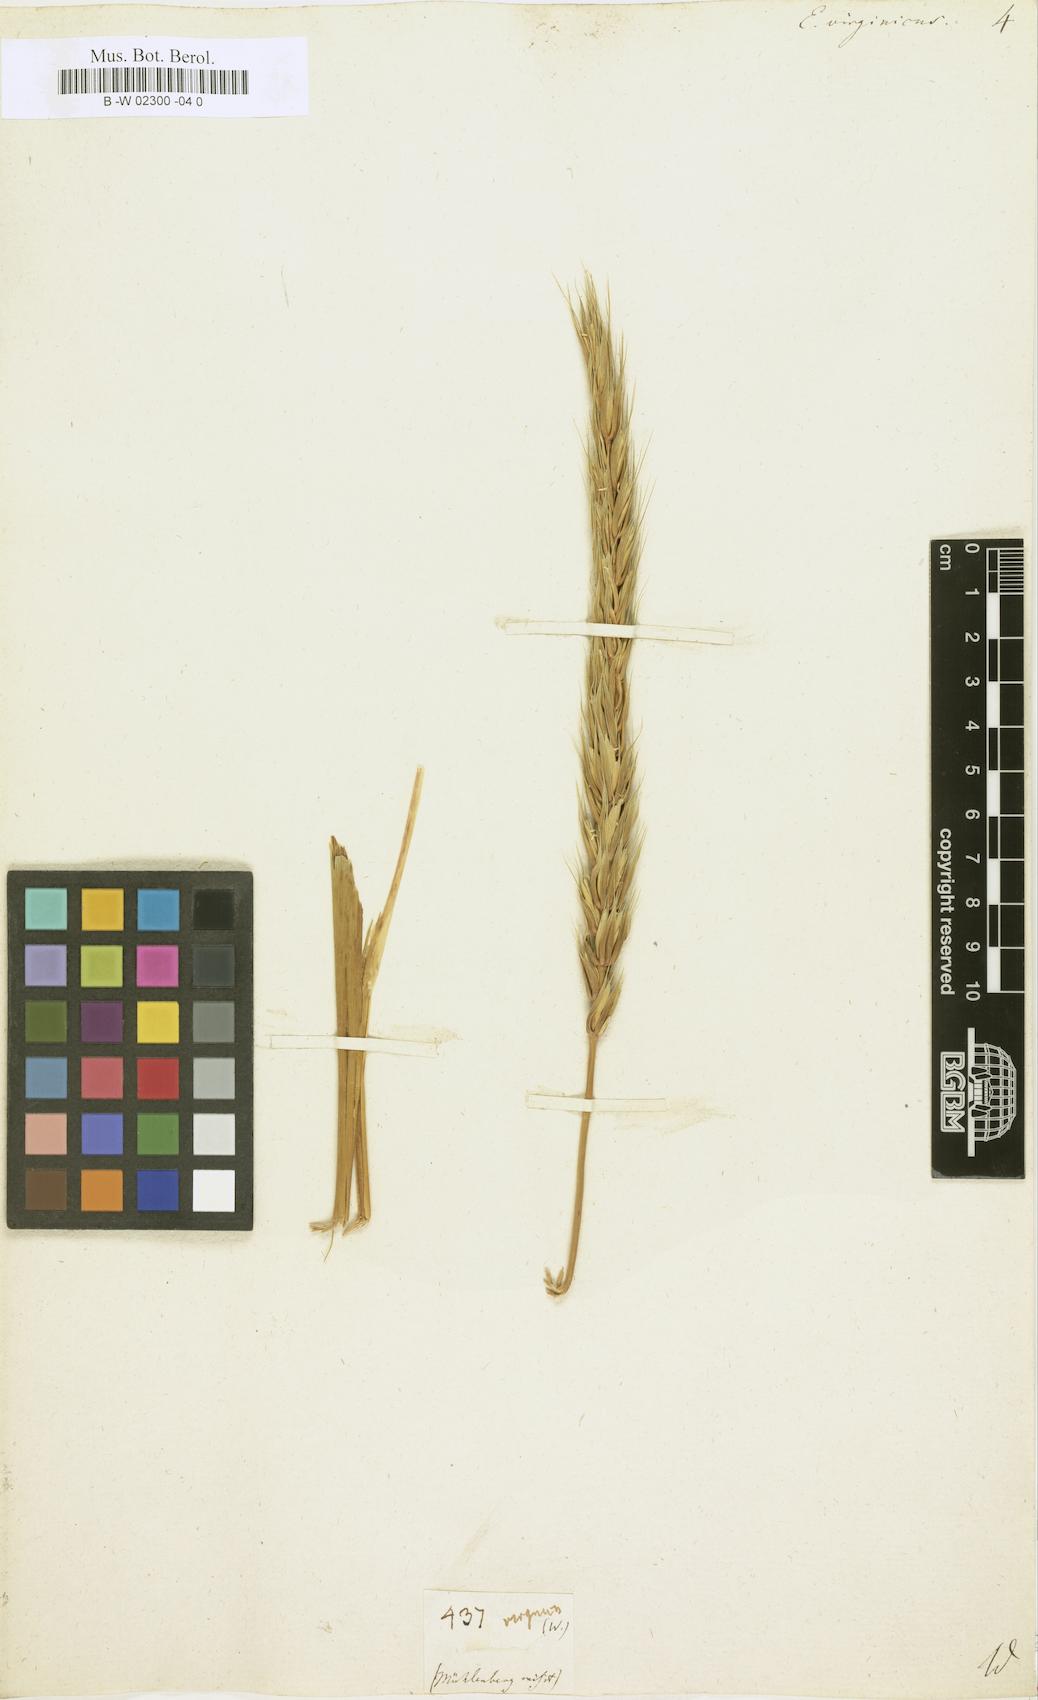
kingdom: Plantae
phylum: Tracheophyta
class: Liliopsida
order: Poales
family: Poaceae
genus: Elymus
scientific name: Elymus virginicus
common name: Common eastern wildrye
